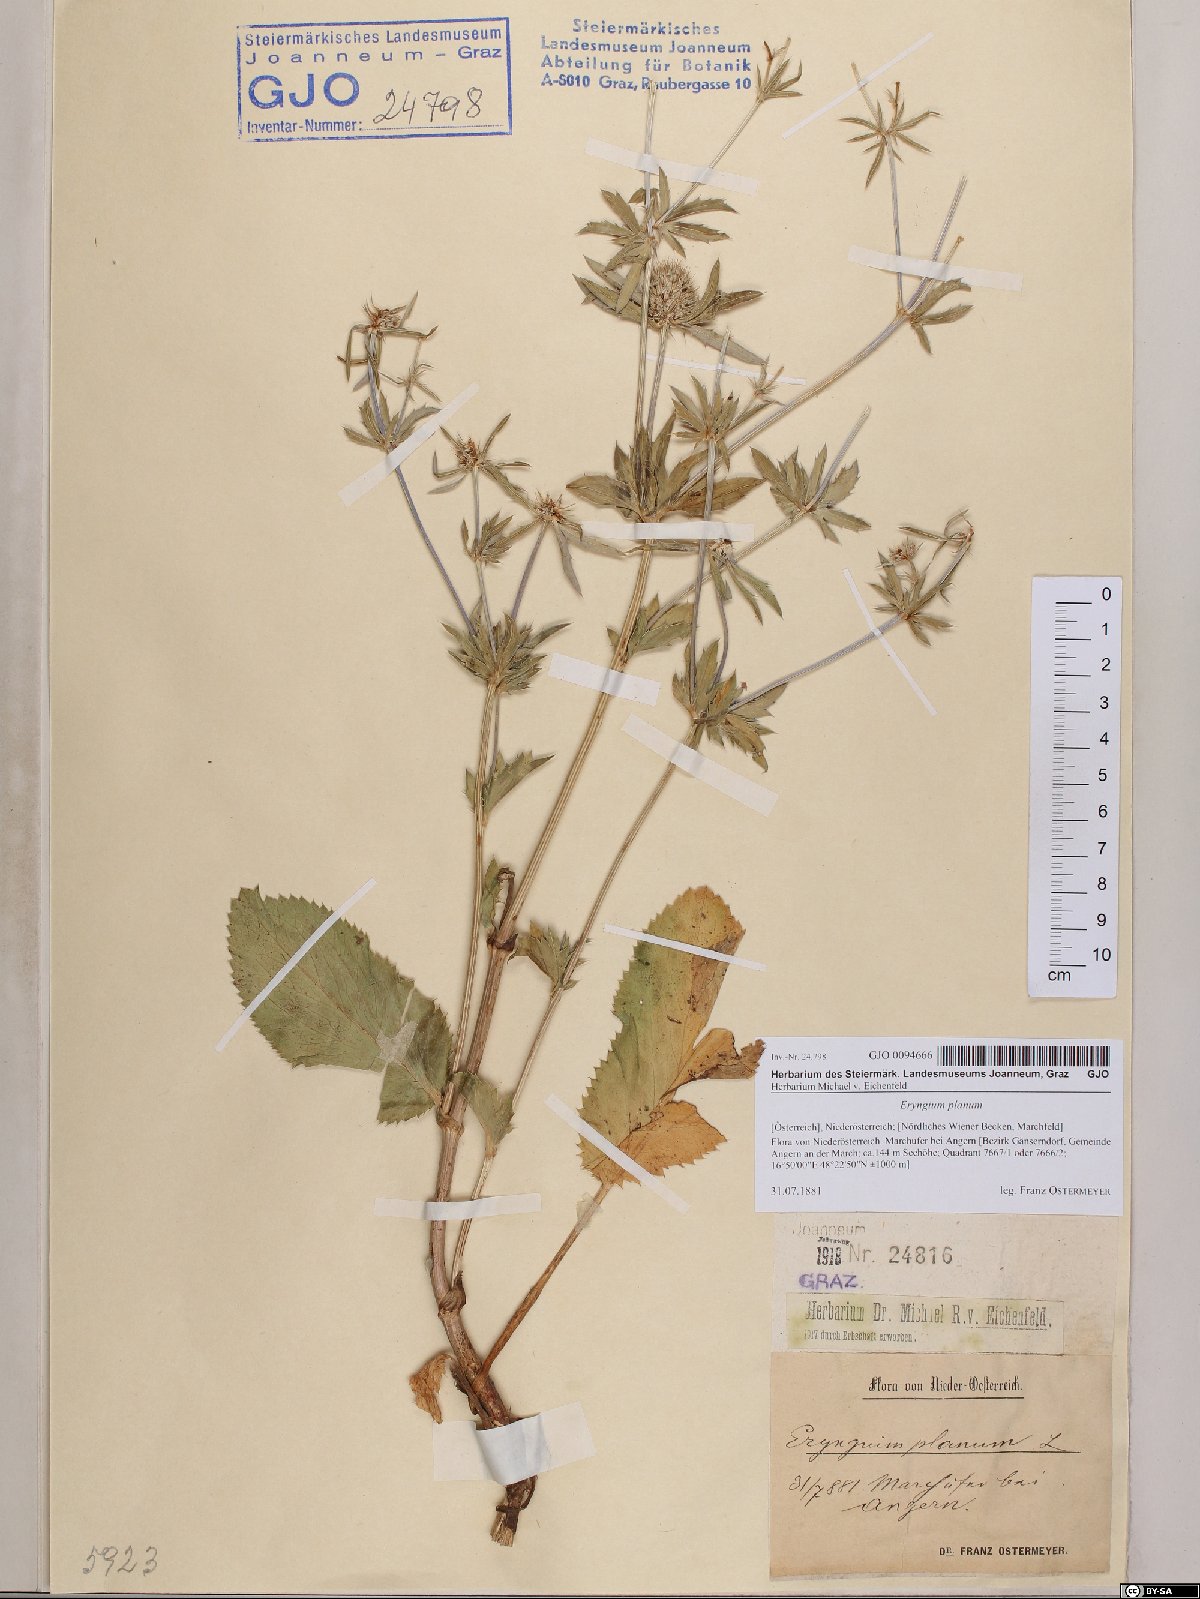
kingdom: Plantae
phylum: Tracheophyta
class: Magnoliopsida
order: Apiales
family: Apiaceae
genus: Eryngium
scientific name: Eryngium planum
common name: Blue eryngo
